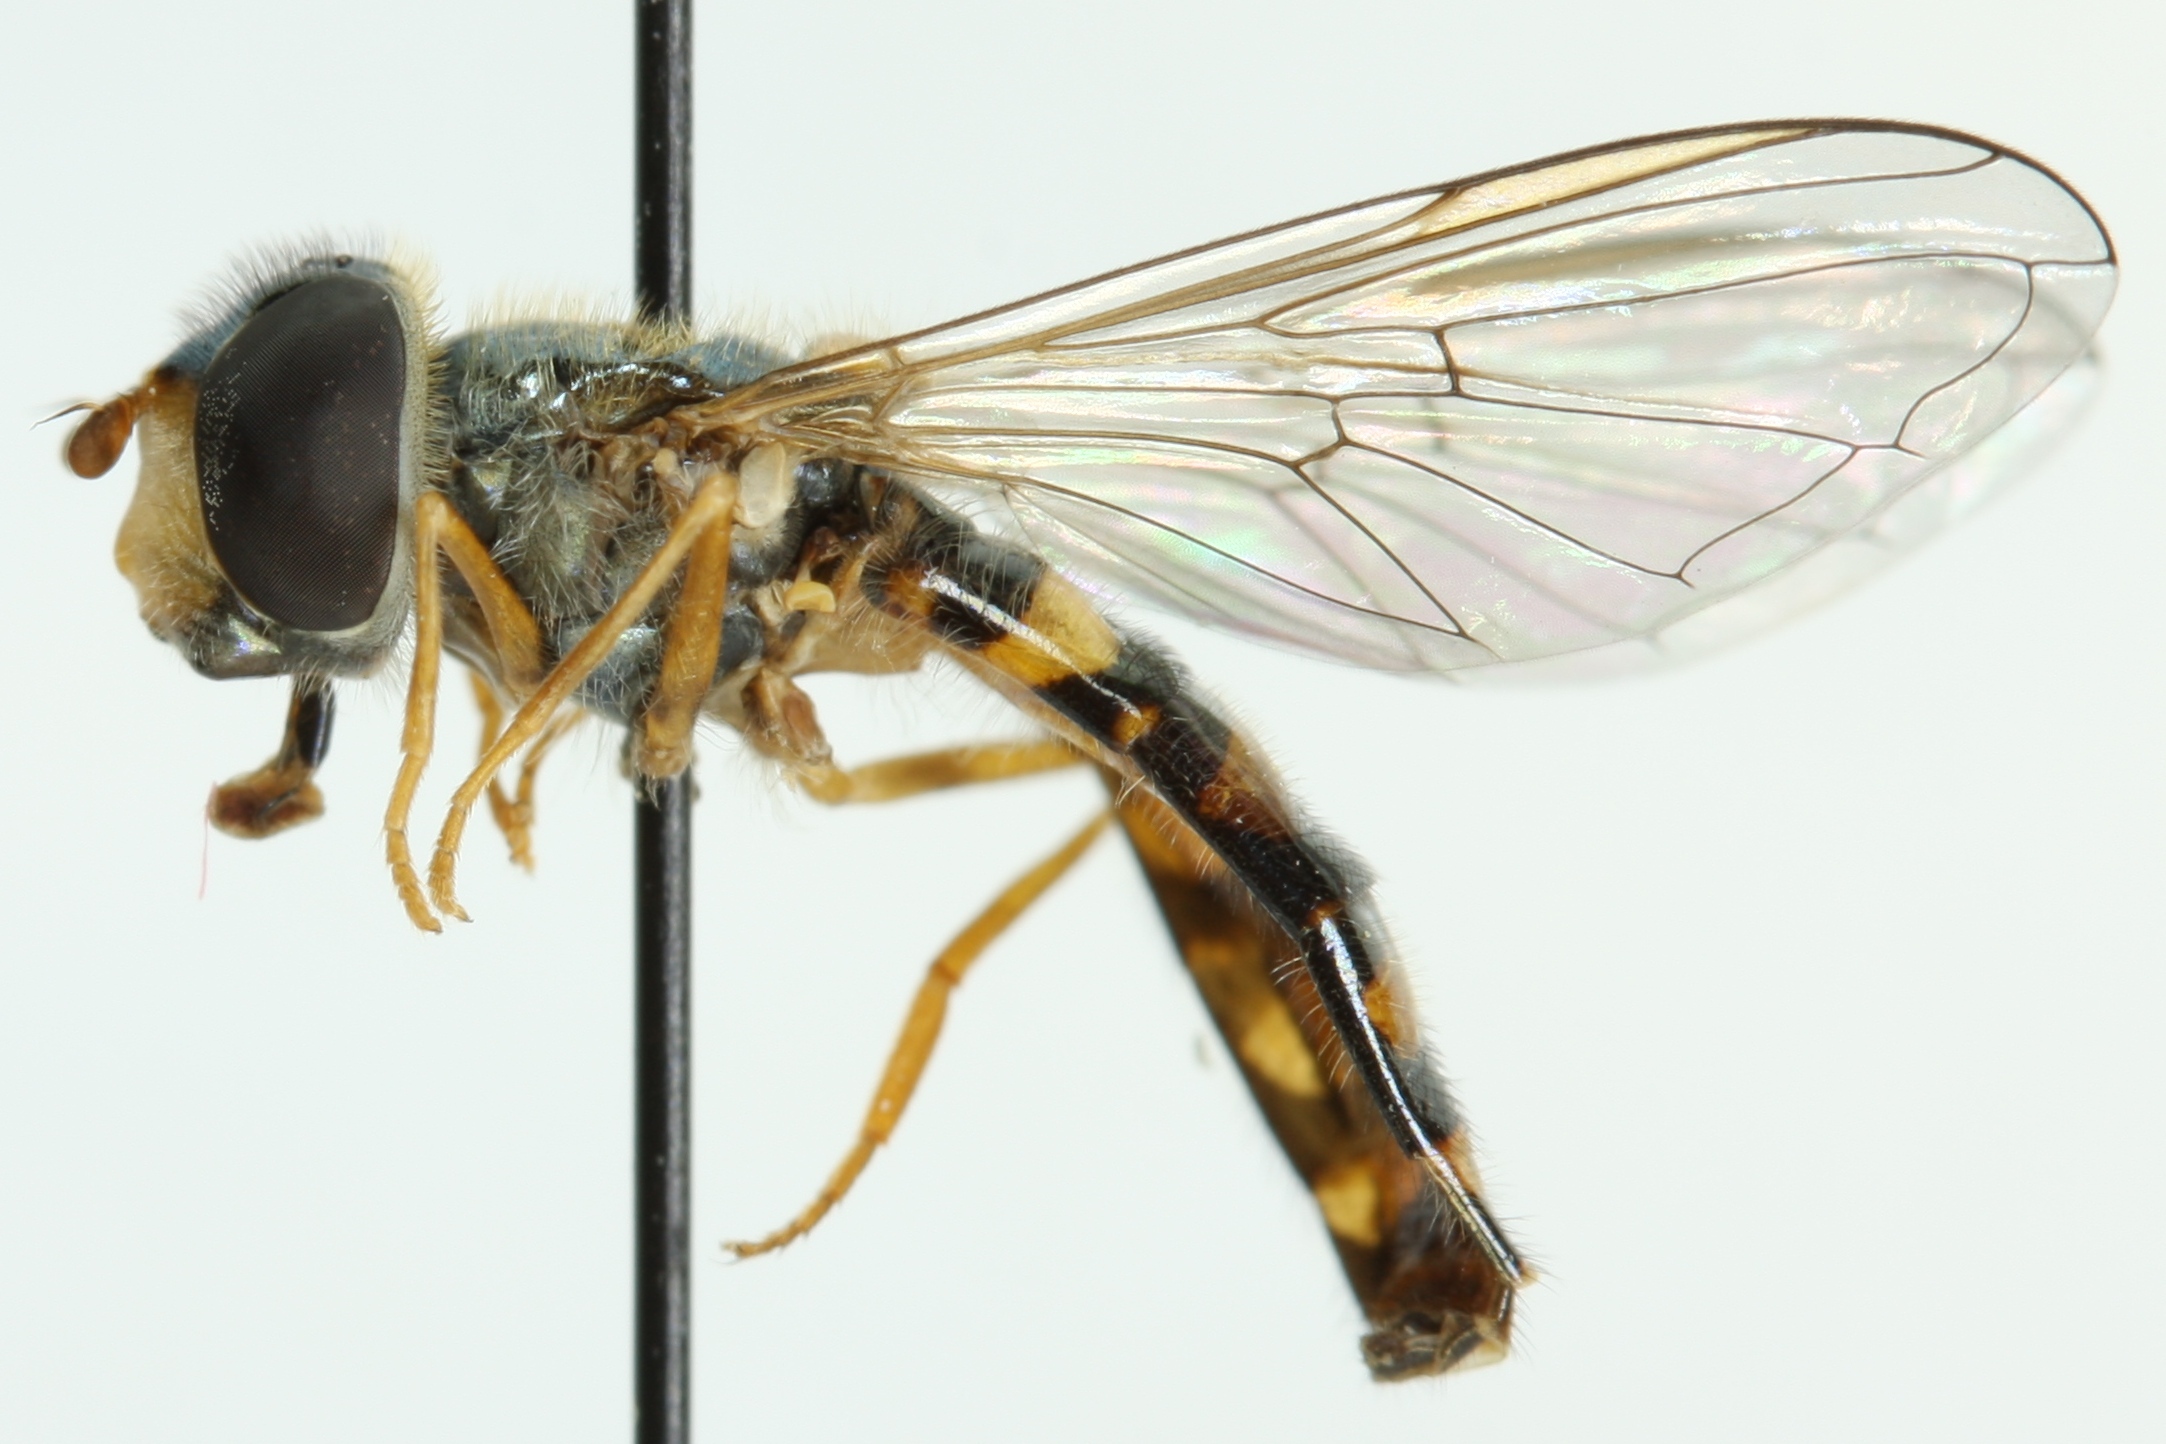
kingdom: Animalia
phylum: Arthropoda
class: Insecta
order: Diptera
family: Syrphidae
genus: Epistrophella
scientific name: Epistrophella euchromus
